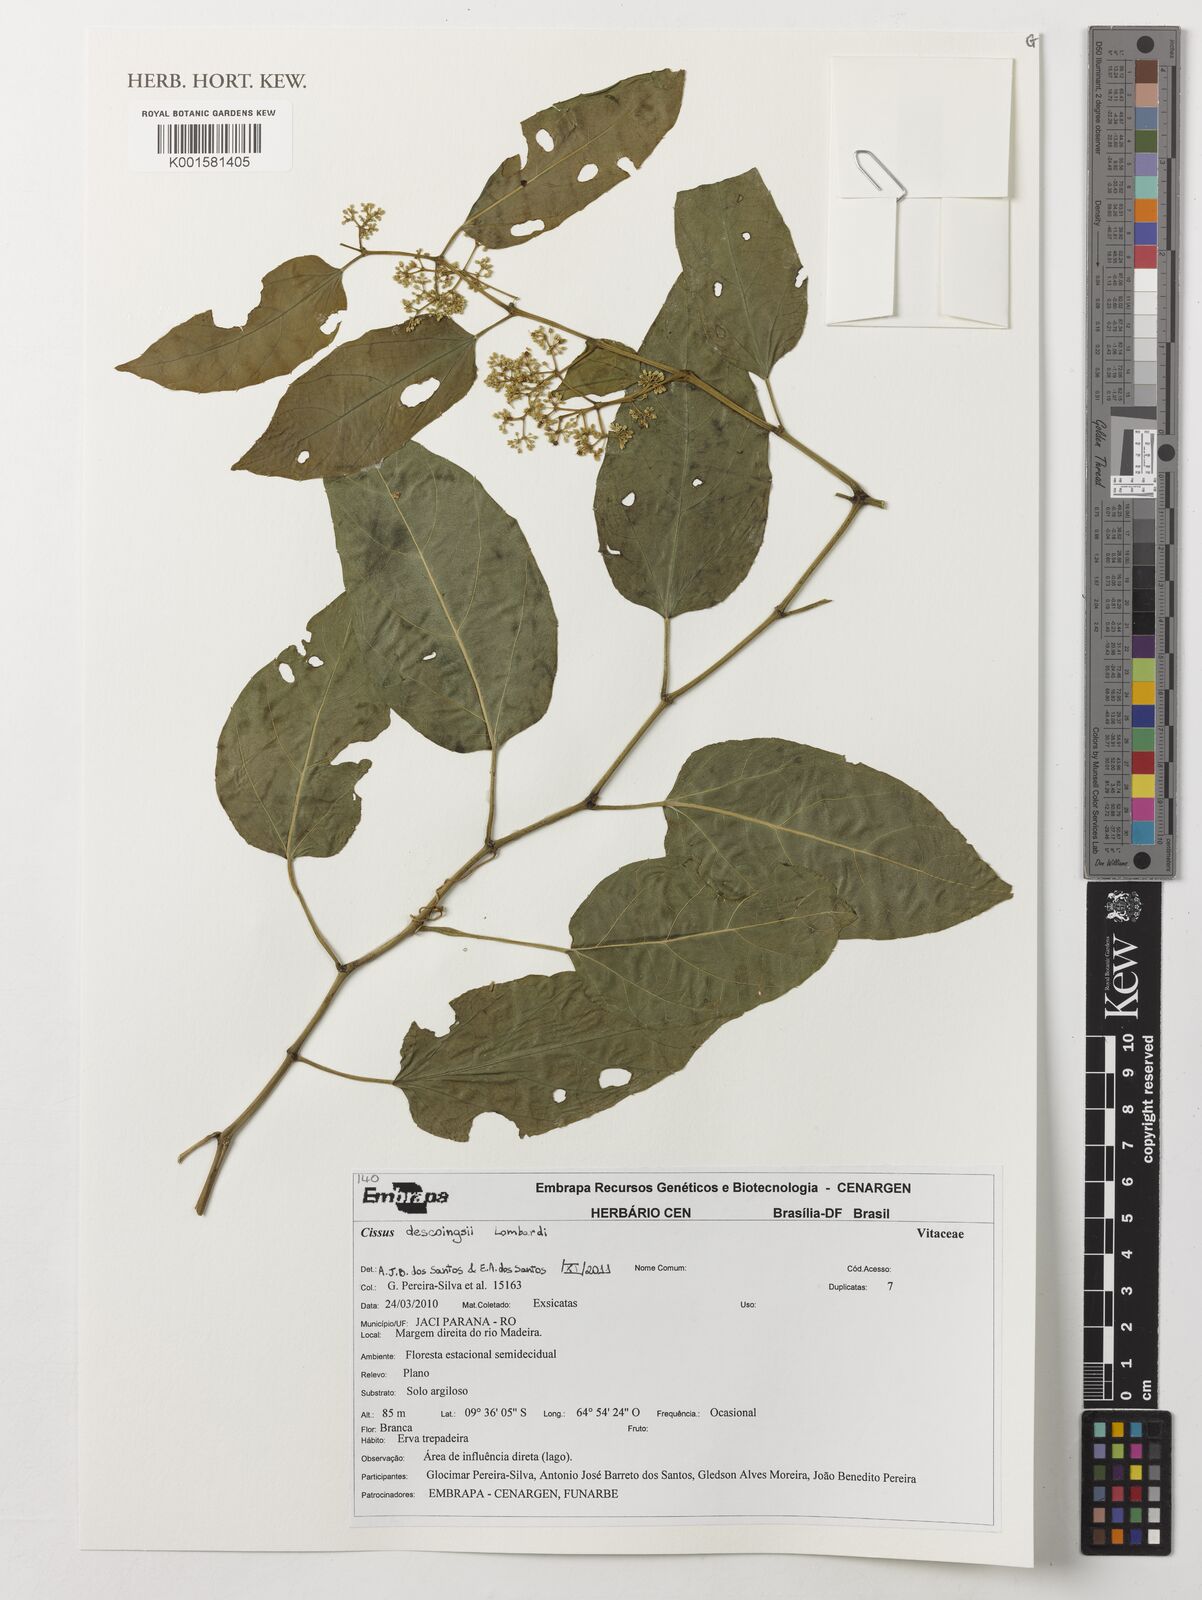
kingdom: Plantae
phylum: Tracheophyta
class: Magnoliopsida
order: Vitales
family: Vitaceae
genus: Cissus
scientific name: Cissus descoingsii
